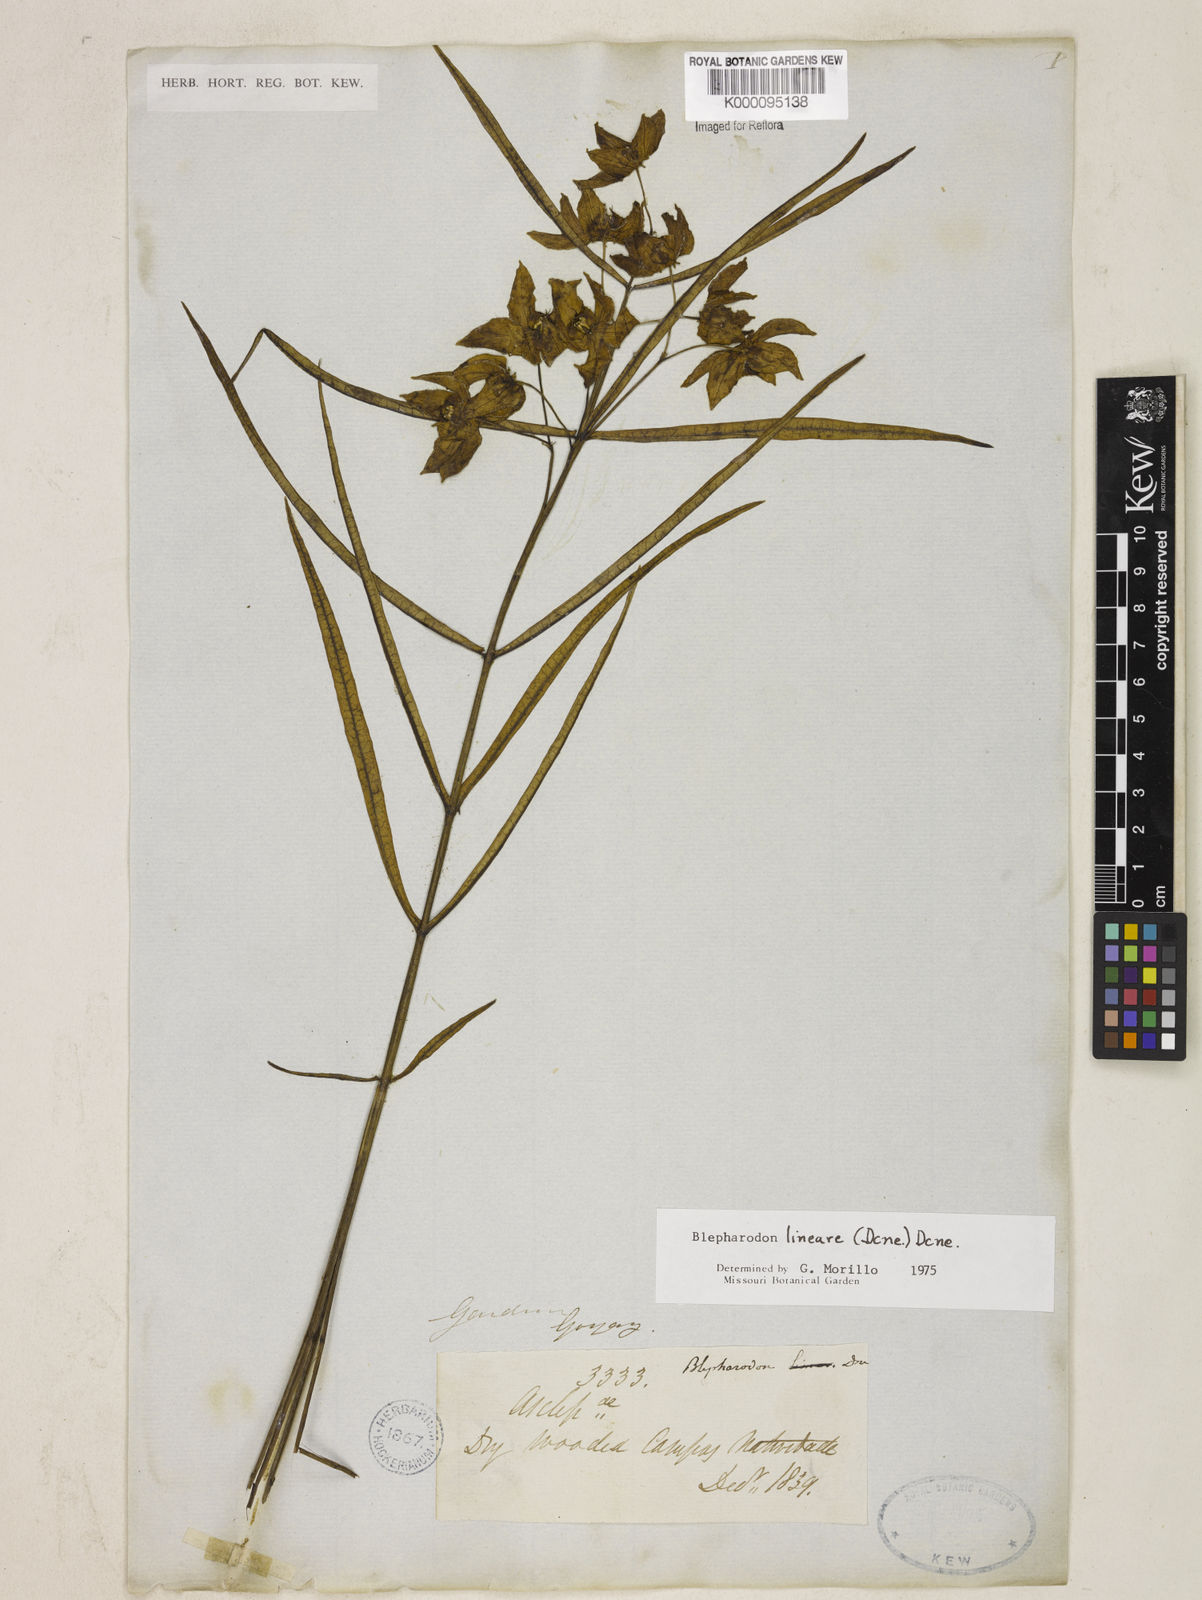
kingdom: Plantae
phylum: Tracheophyta
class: Magnoliopsida
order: Gentianales
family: Apocynaceae
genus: Blepharodon
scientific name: Blepharodon lineare
